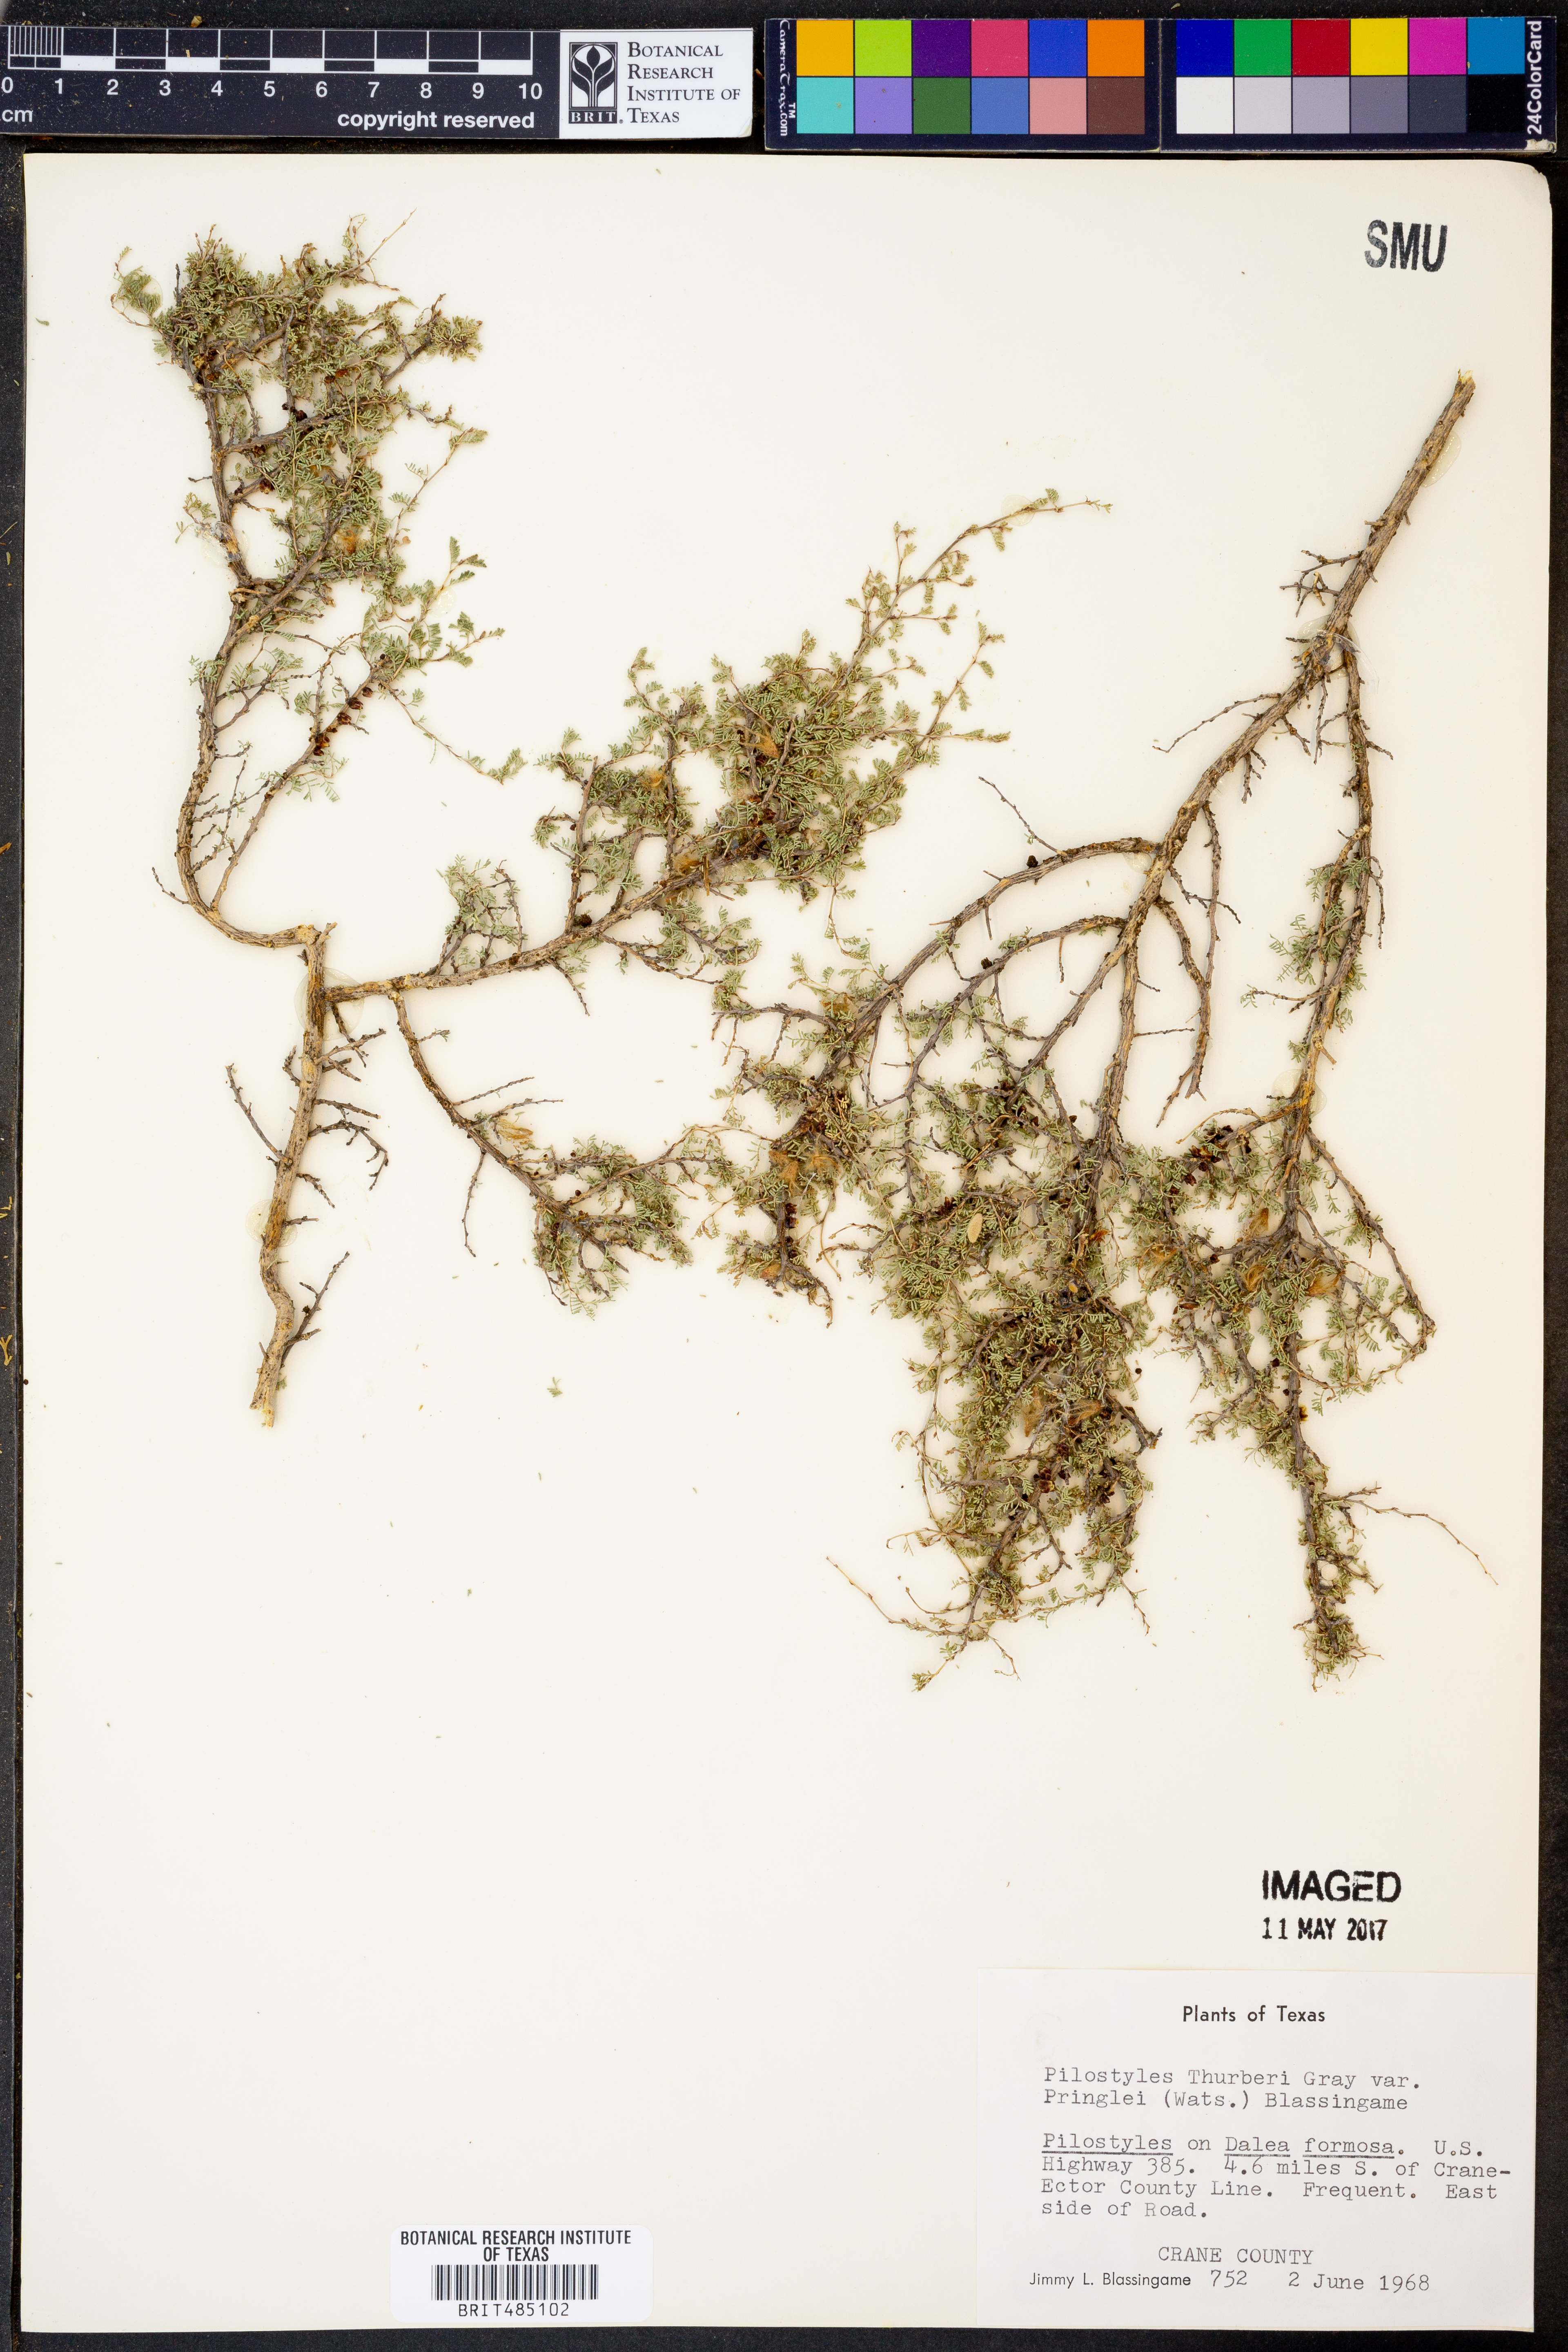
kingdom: Plantae
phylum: Tracheophyta
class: Magnoliopsida
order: Cucurbitales
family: Apodanthaceae
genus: Pilostyles
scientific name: Pilostyles thurberi
